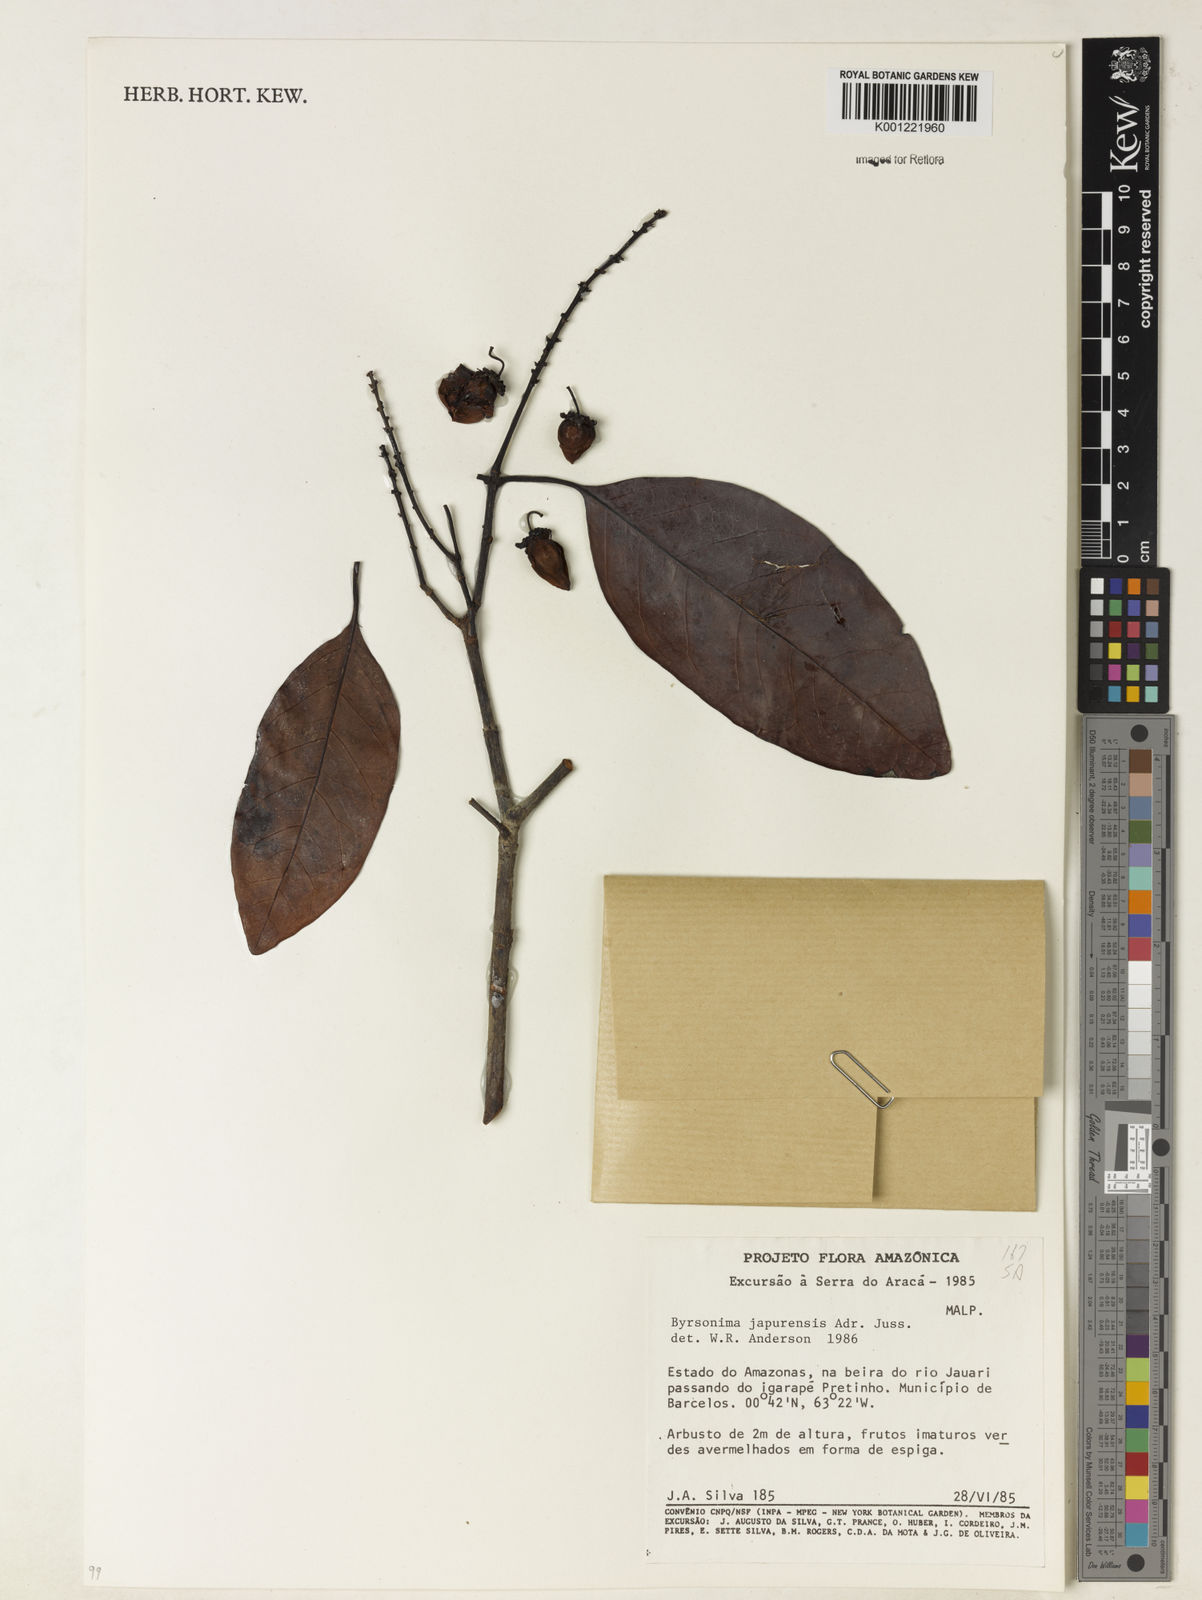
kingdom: Plantae
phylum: Tracheophyta
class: Magnoliopsida
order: Malpighiales
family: Malpighiaceae
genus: Byrsonima
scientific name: Byrsonima japurensis
